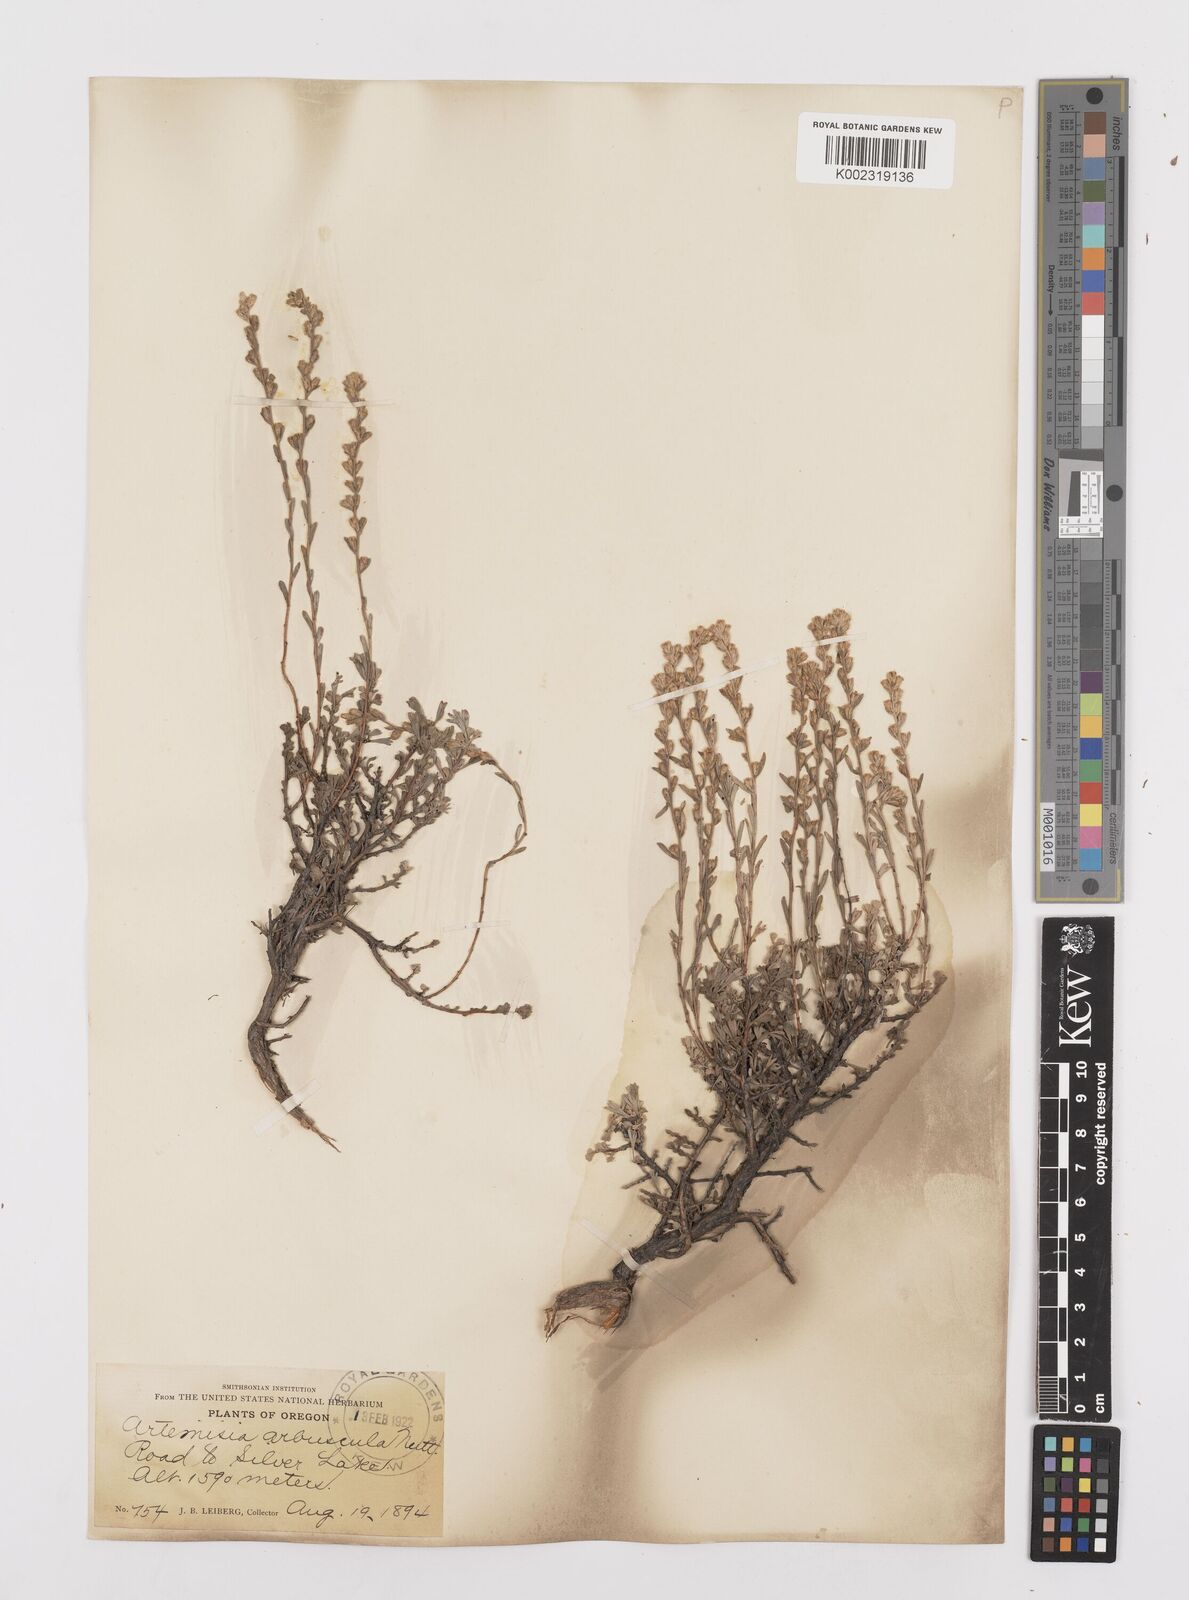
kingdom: Plantae
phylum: Tracheophyta
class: Magnoliopsida
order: Asterales
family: Asteraceae
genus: Artemisia
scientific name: Artemisia arbuscula
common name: Sagebrush
